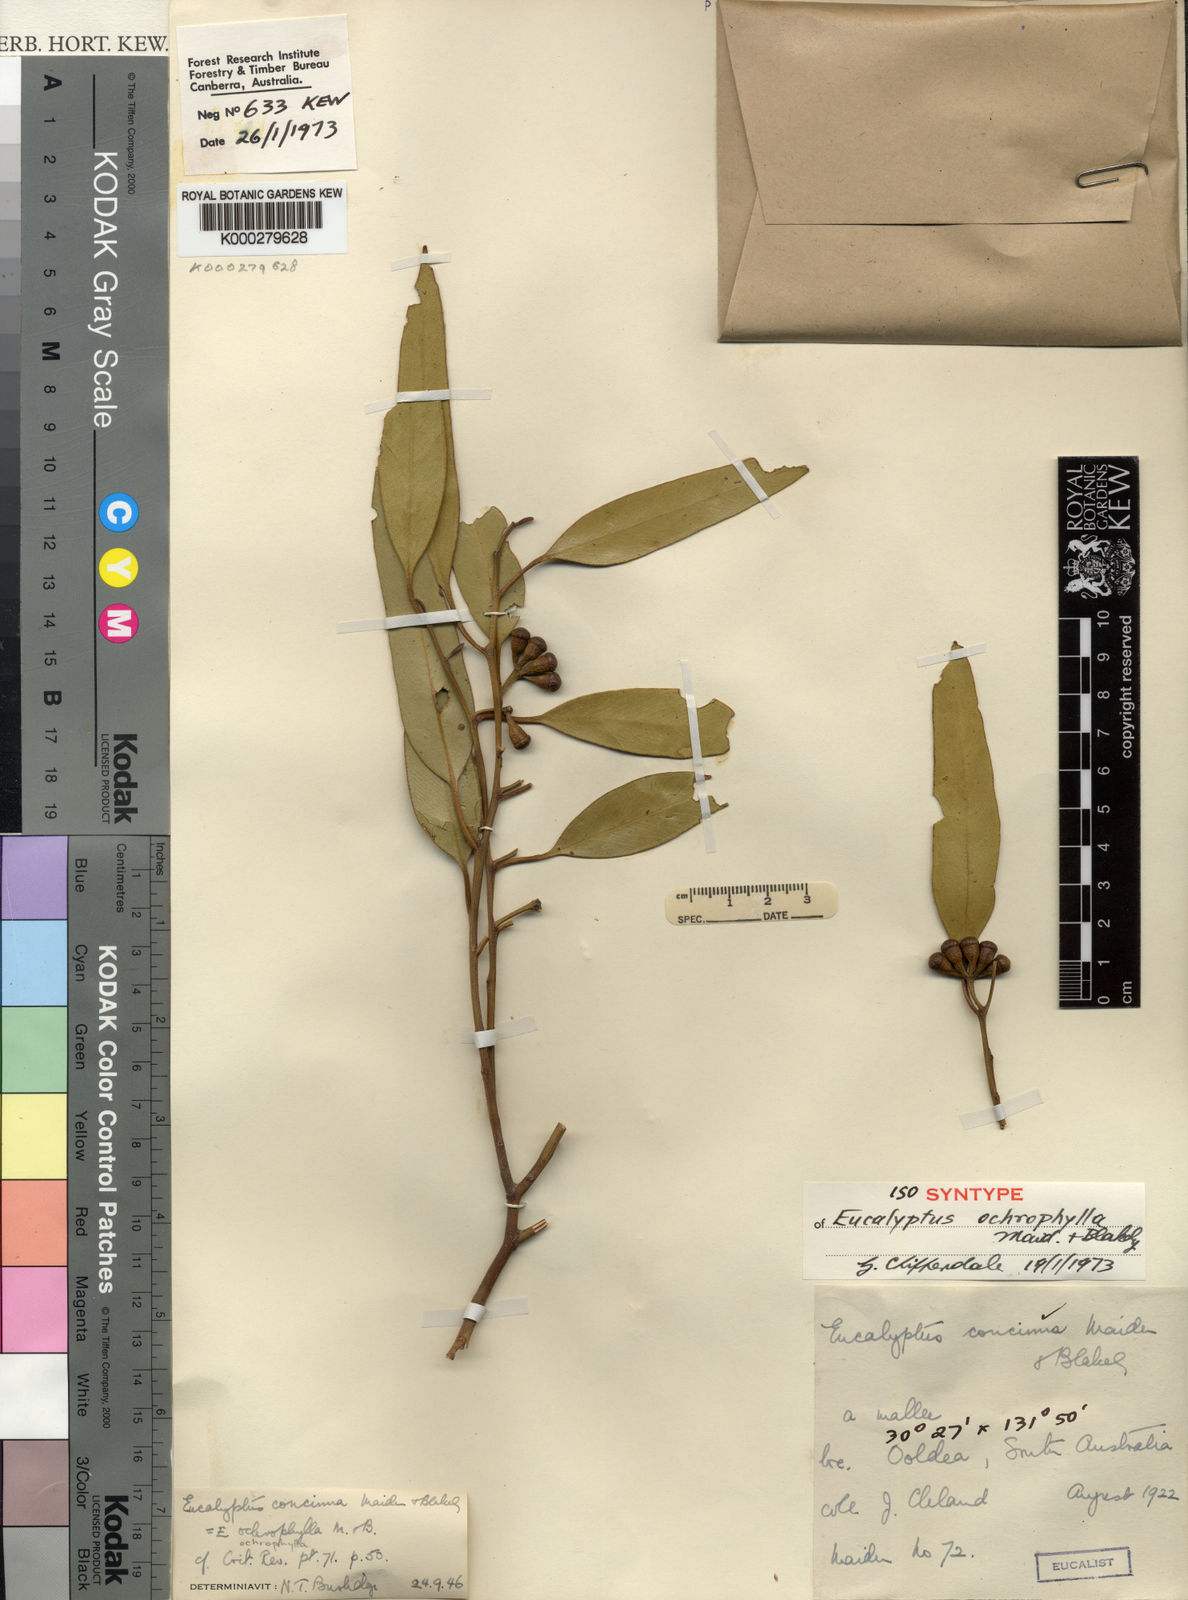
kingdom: Plantae
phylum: Tracheophyta
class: Magnoliopsida
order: Myrtales
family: Myrtaceae
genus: Eucalyptus
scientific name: Eucalyptus concinna
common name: Desert gum
